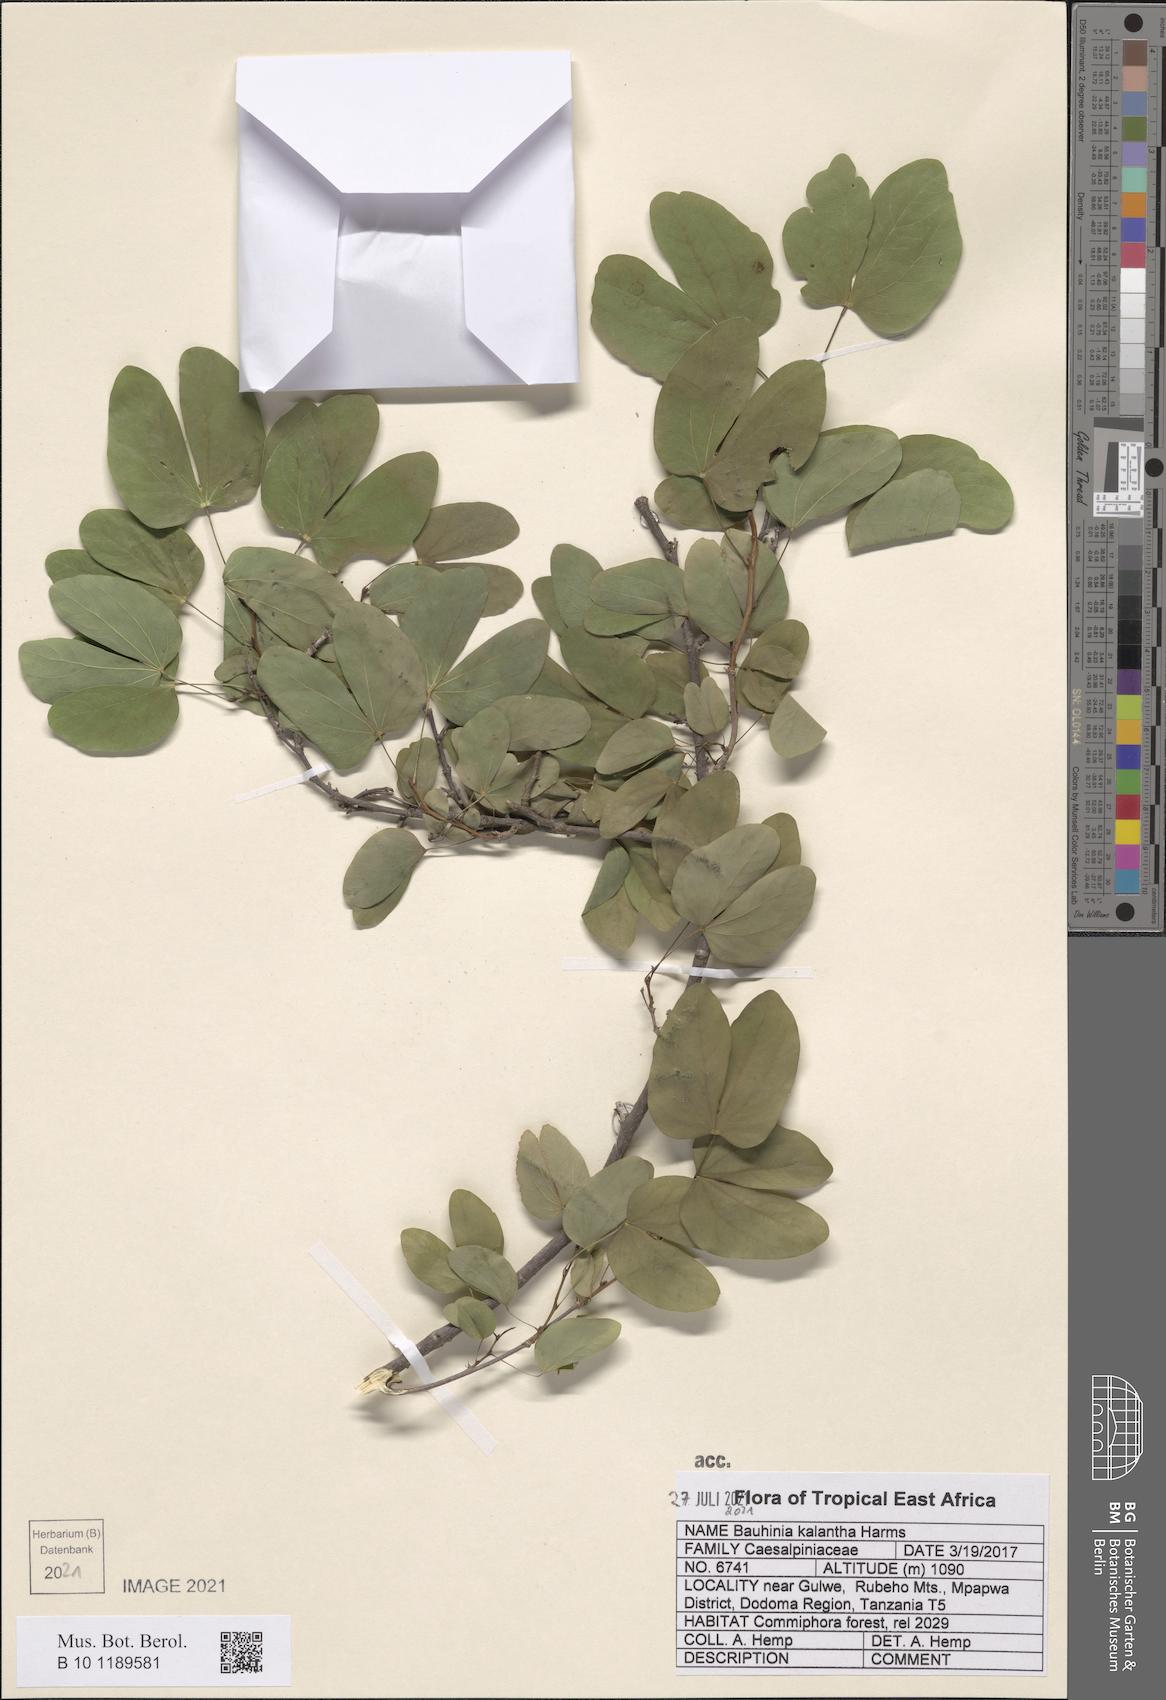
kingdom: Plantae
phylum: Tracheophyta
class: Magnoliopsida
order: Fabales
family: Fabaceae
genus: Bauhinia
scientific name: Bauhinia kalantha
